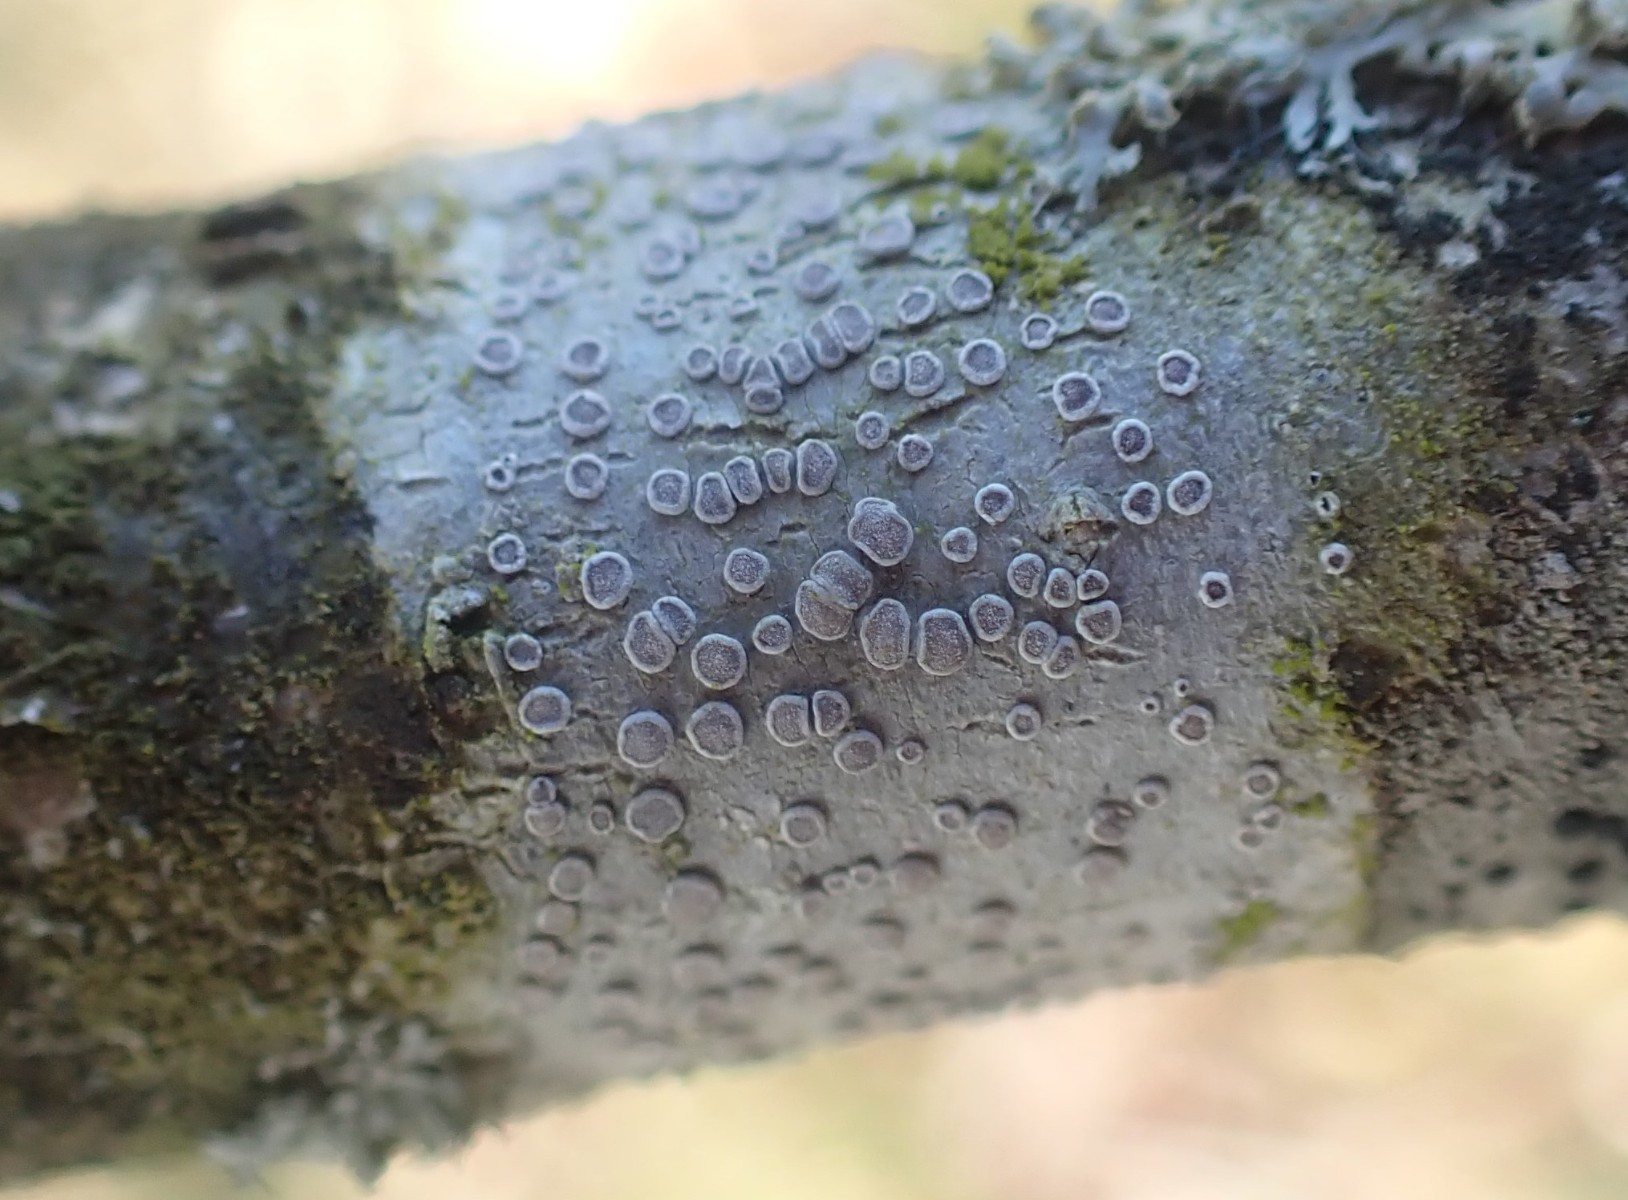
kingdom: Fungi
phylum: Ascomycota
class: Lecanoromycetes
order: Lecanorales
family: Lecanoraceae
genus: Glaucomaria
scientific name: Glaucomaria carpinea
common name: hviddugget kantskivelav
